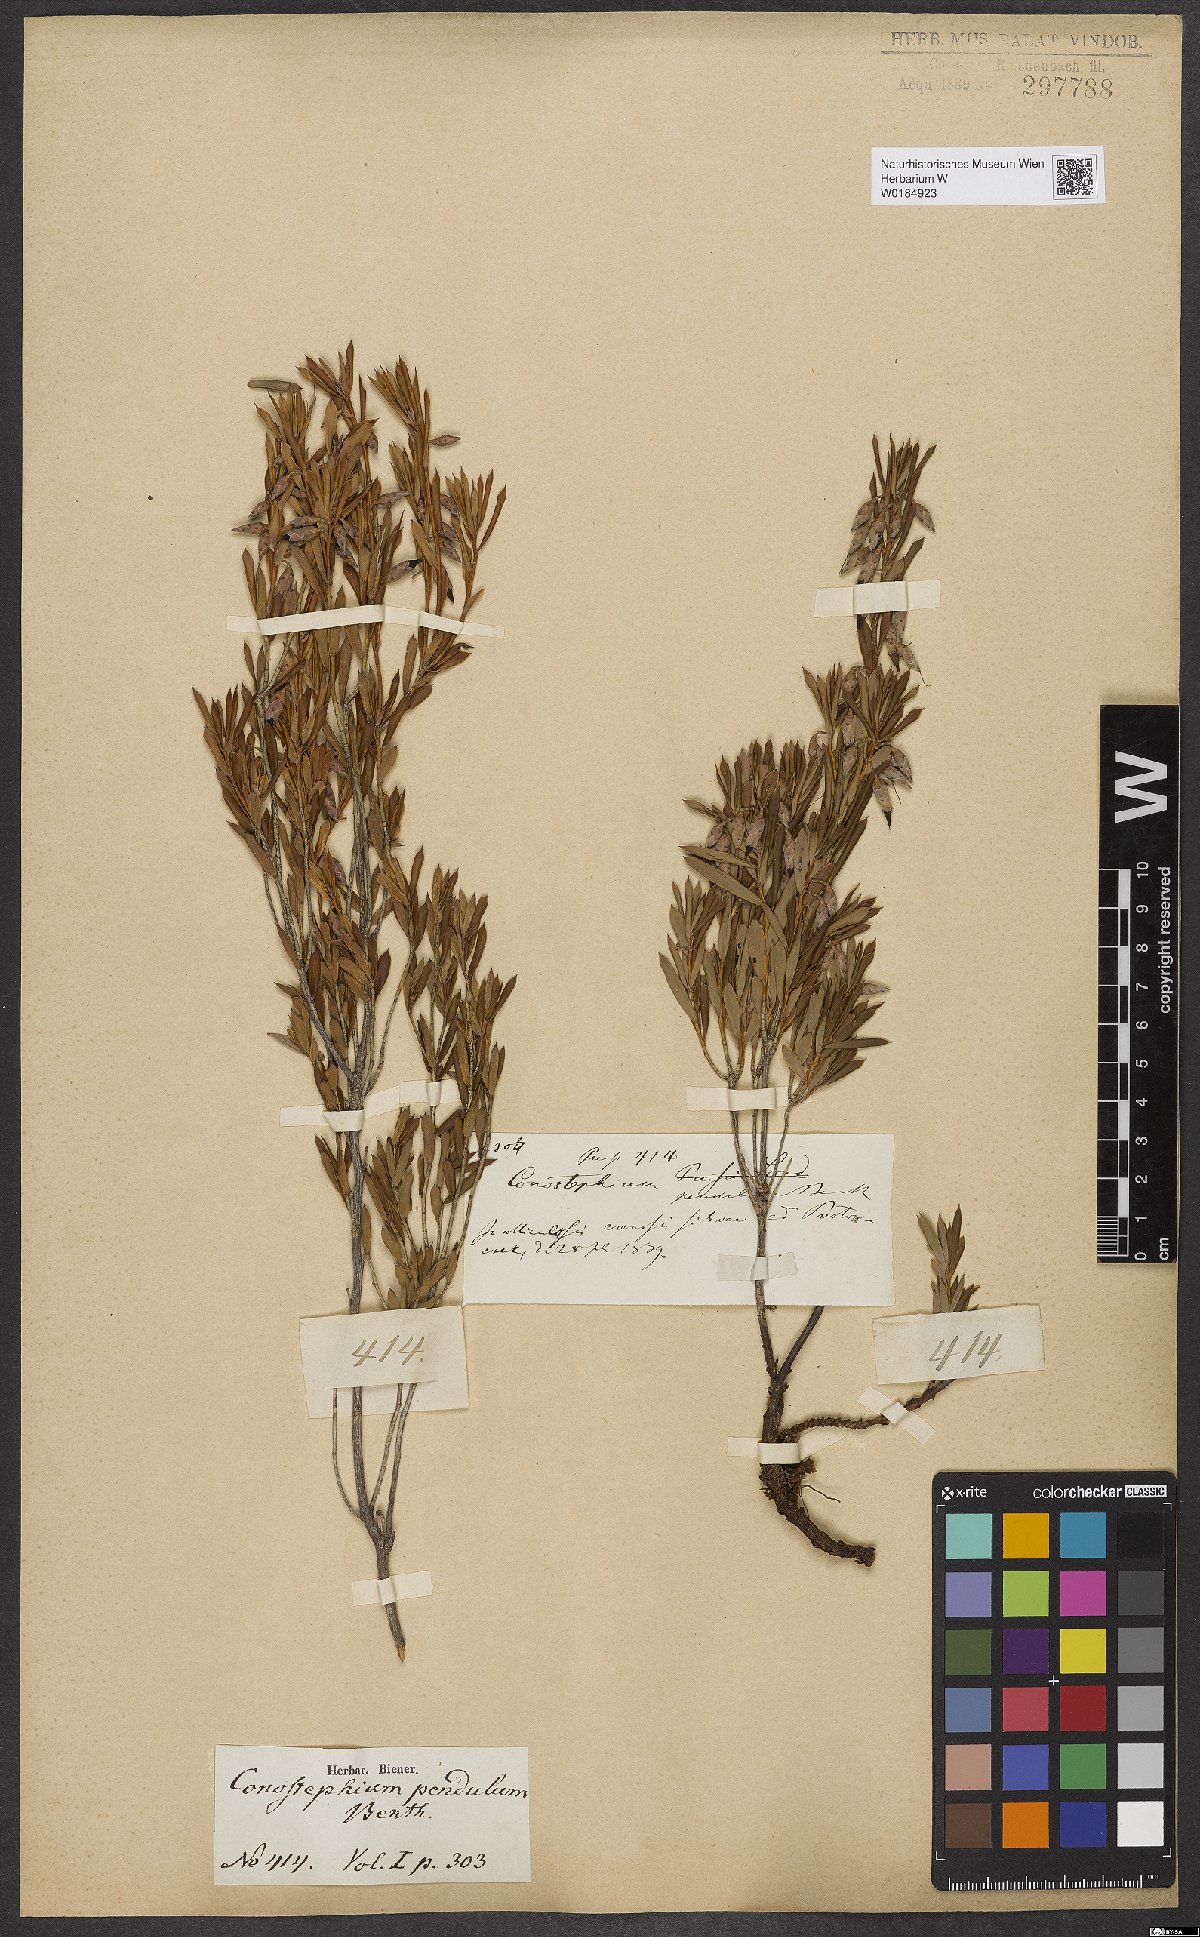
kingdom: Plantae
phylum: Tracheophyta
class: Magnoliopsida
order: Ericales
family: Ericaceae
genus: Conostephium
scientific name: Conostephium pendulum
